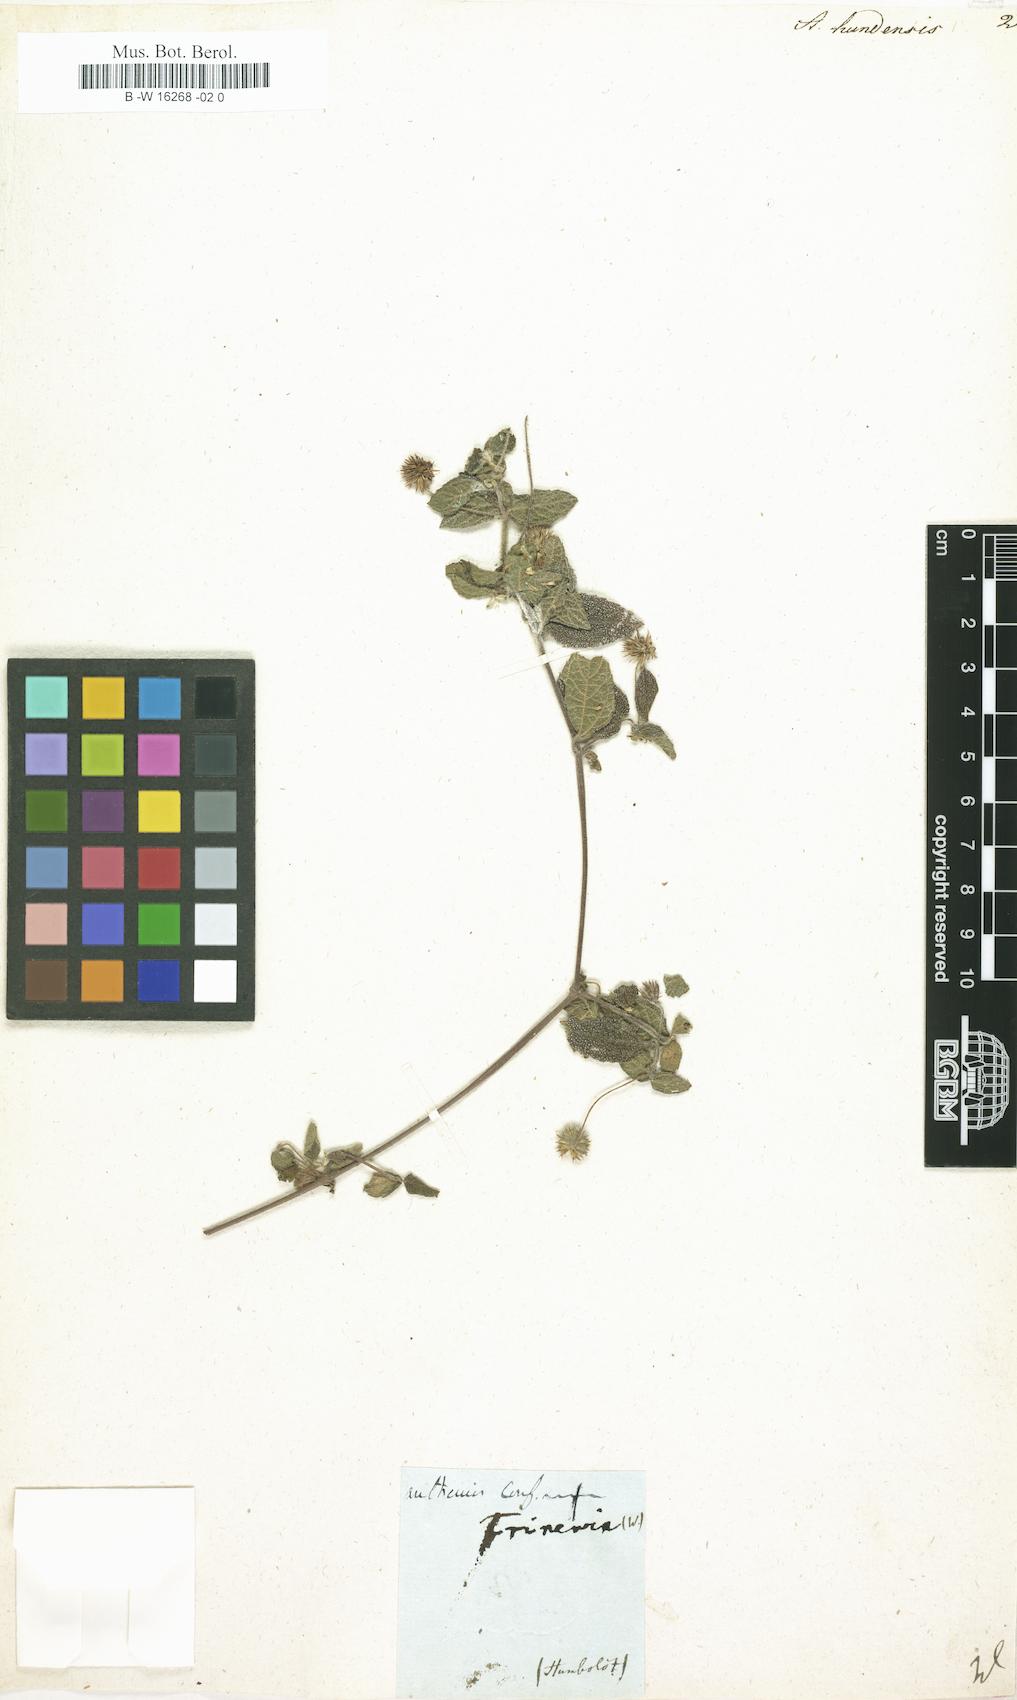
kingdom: Plantae
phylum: Tracheophyta
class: Magnoliopsida
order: Asterales
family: Asteraceae
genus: Wedelia
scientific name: Wedelia acapulcensis
